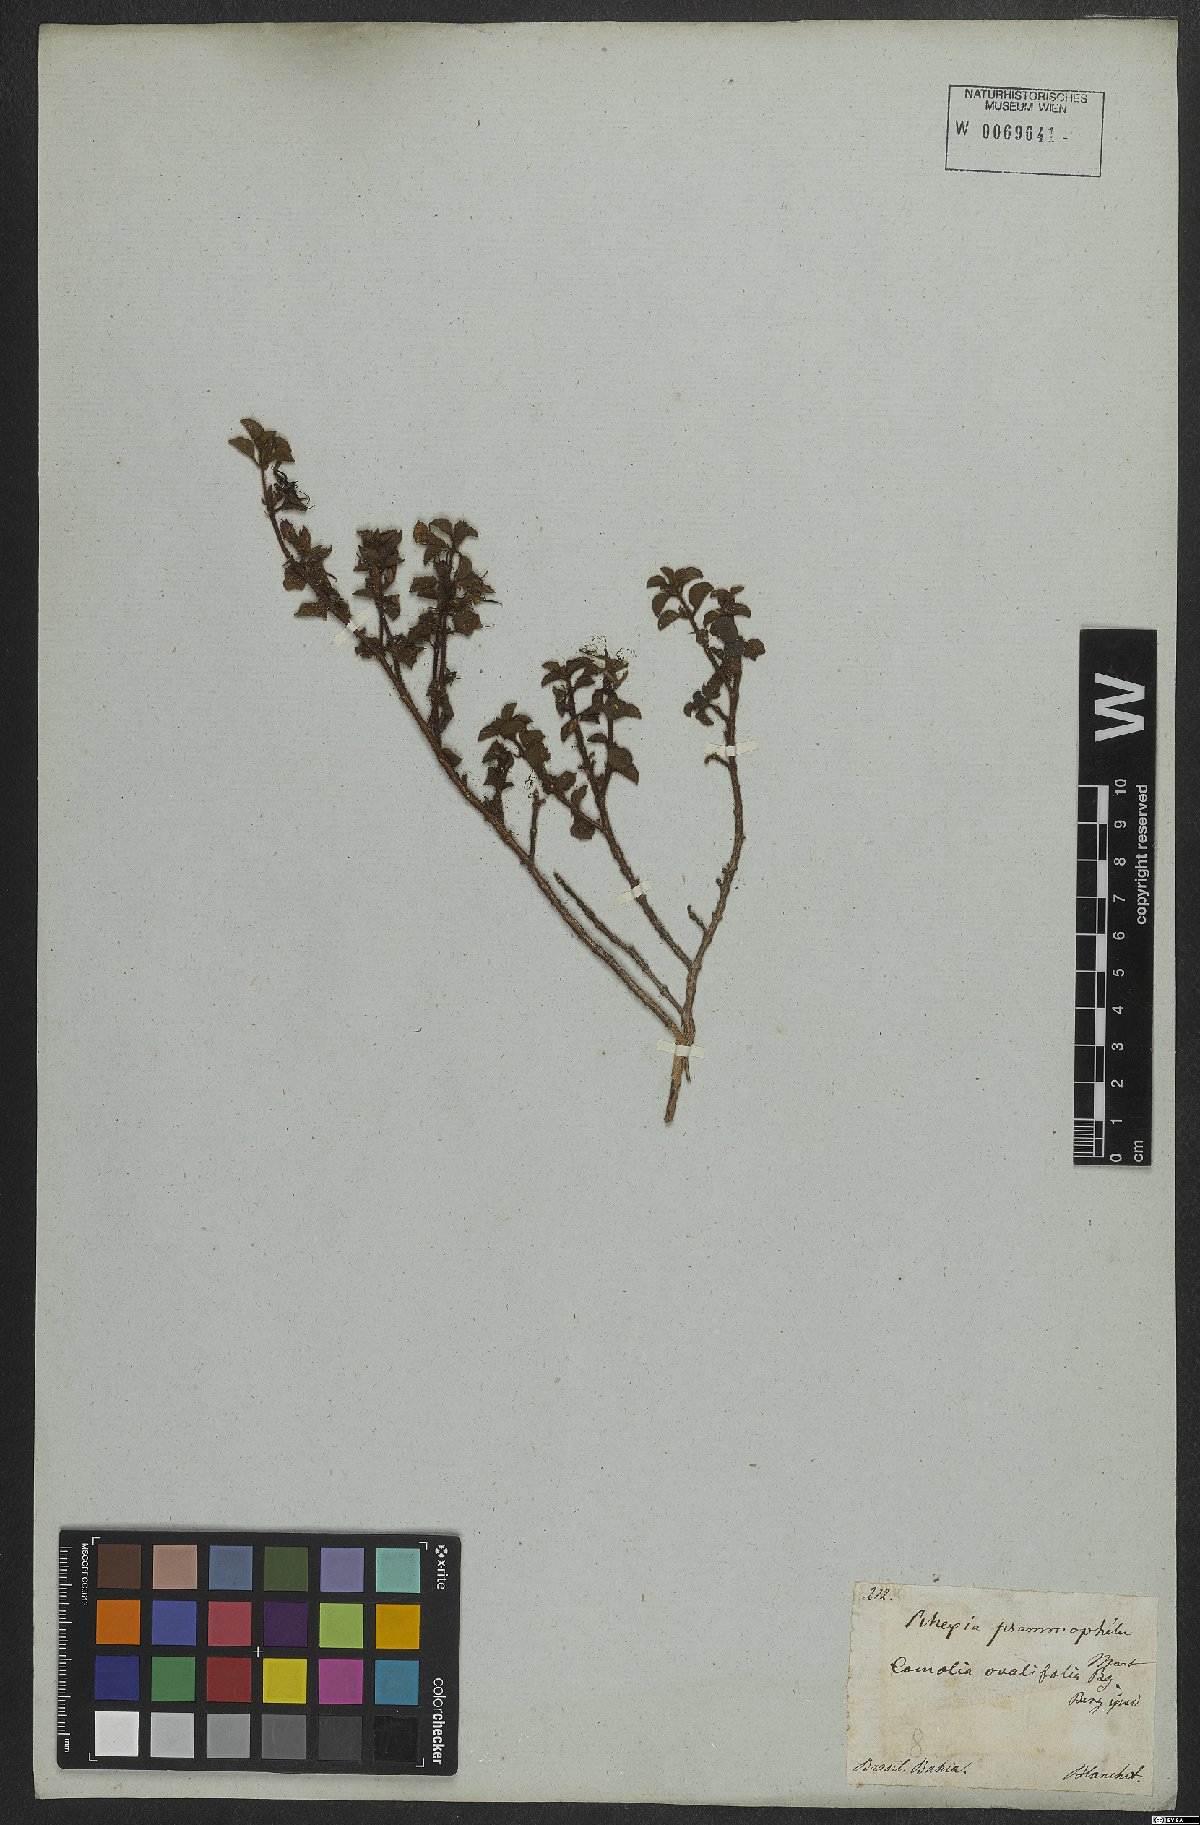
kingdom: Plantae
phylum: Tracheophyta
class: Magnoliopsida
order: Myrtales
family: Melastomataceae
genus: Comolia
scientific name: Comolia ovalifolia
